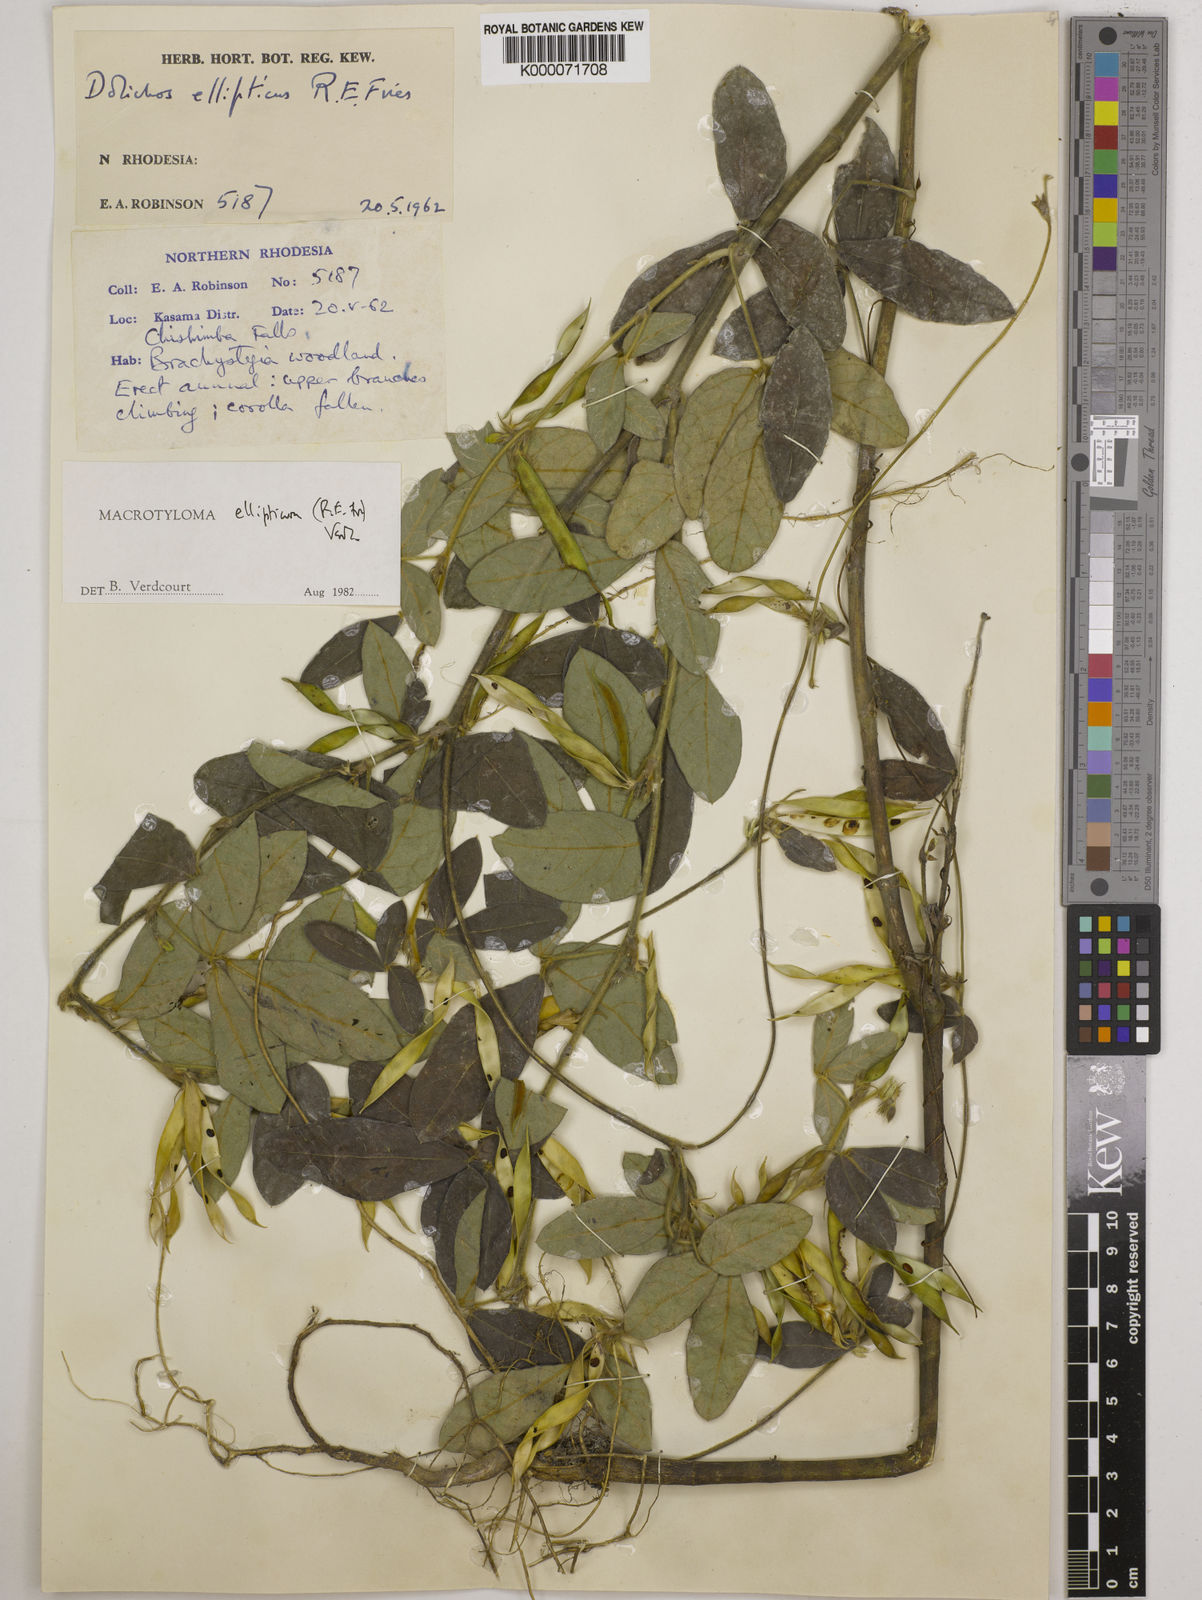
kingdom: Plantae
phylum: Tracheophyta
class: Magnoliopsida
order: Fabales
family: Fabaceae
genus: Macrotyloma
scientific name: Macrotyloma ellipticum
